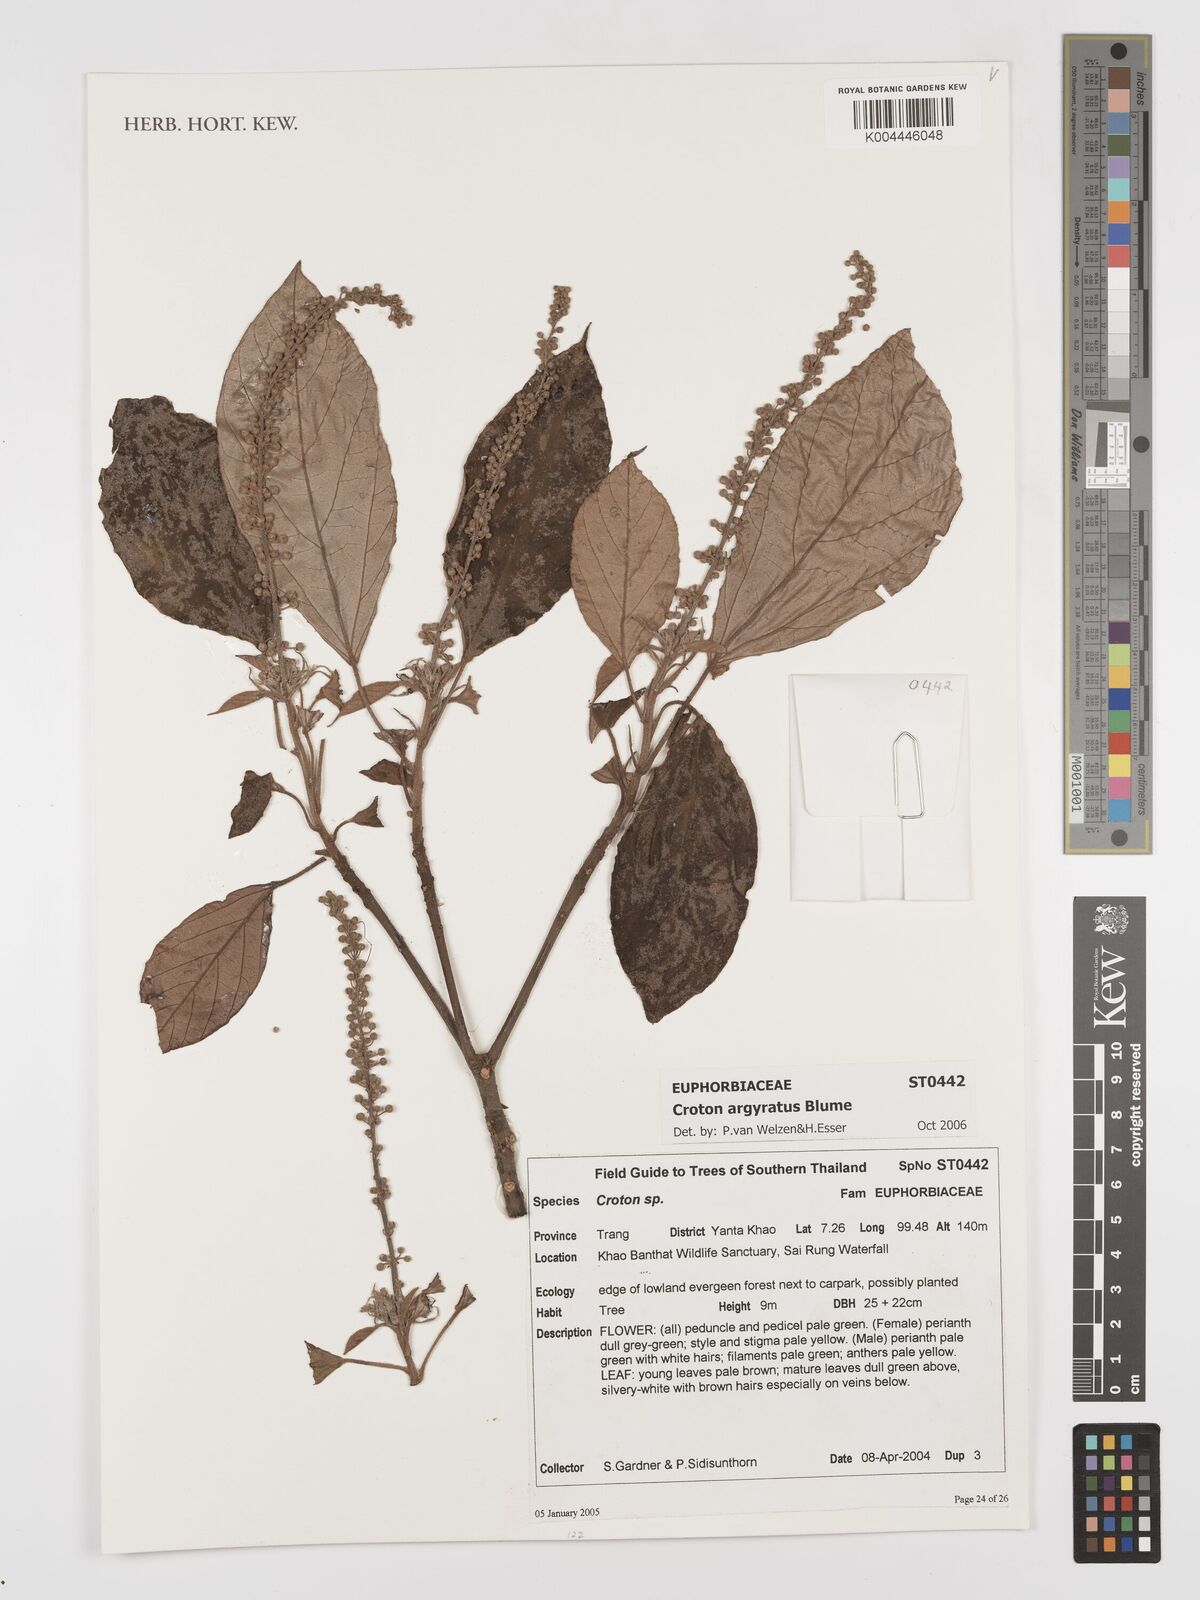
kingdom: Plantae
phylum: Tracheophyta
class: Magnoliopsida
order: Malpighiales
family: Euphorbiaceae
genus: Croton
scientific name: Croton argyratus
